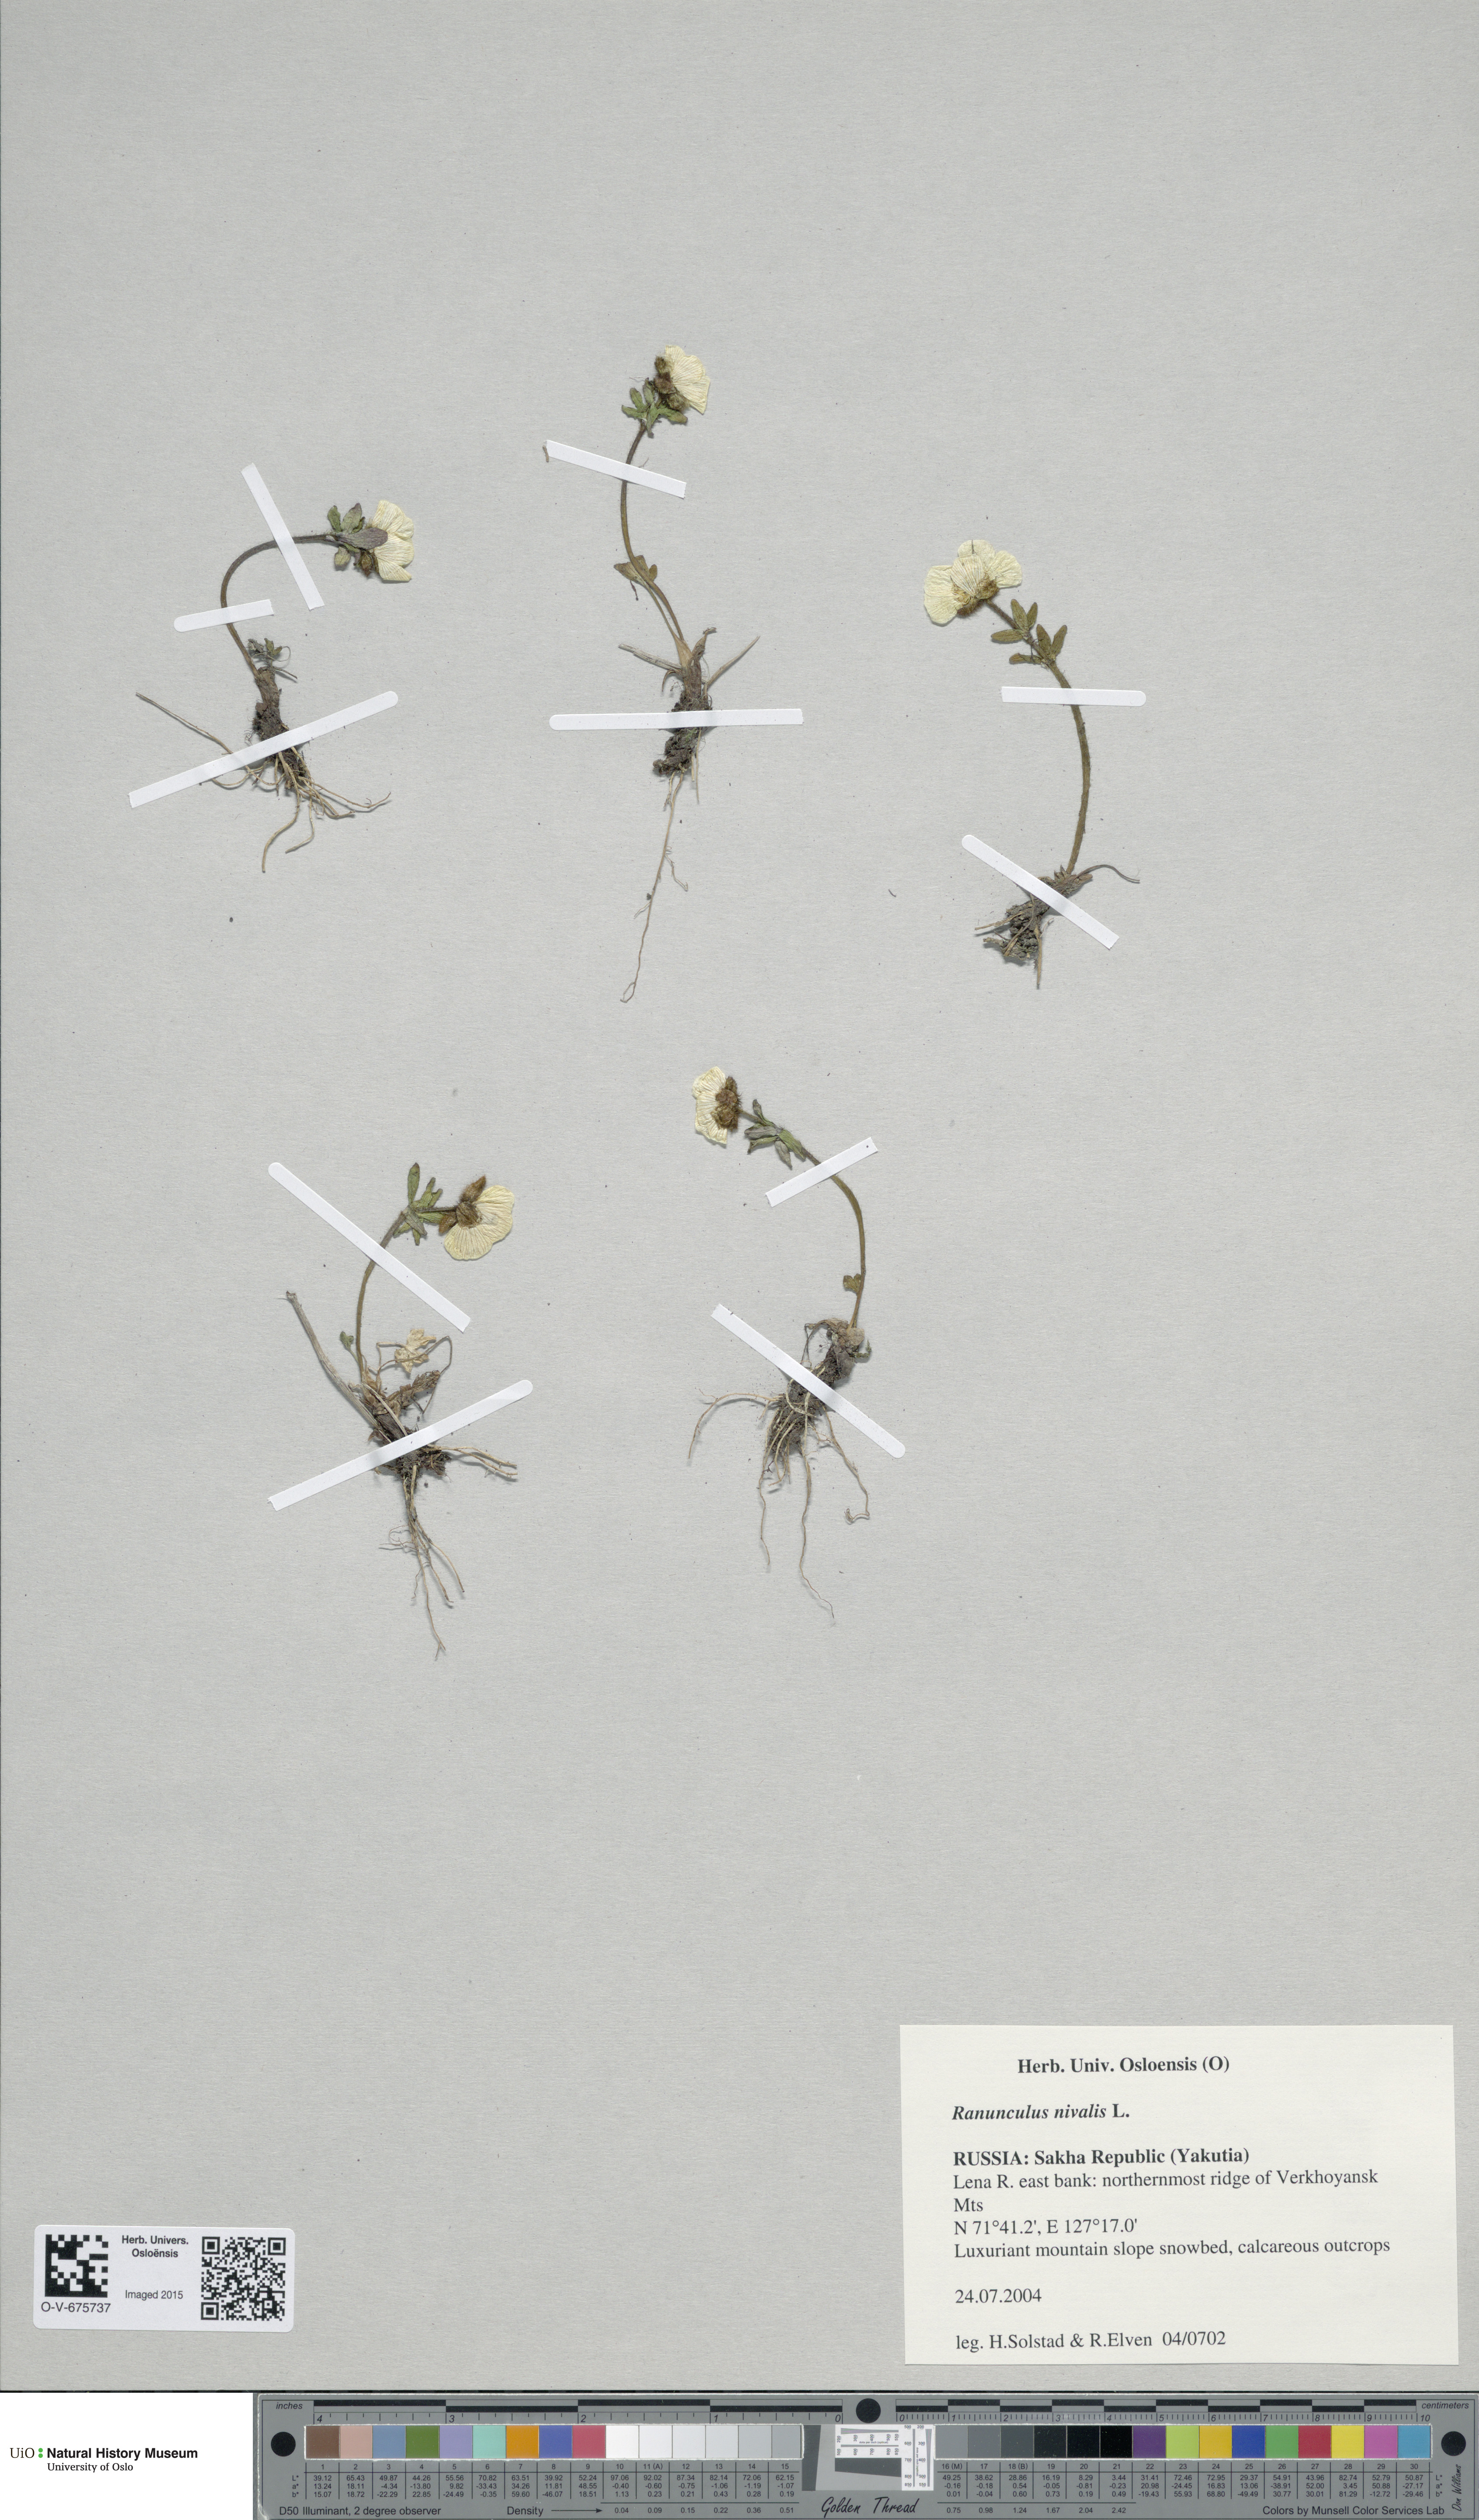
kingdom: Plantae
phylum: Tracheophyta
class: Magnoliopsida
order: Ranunculales
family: Ranunculaceae
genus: Ranunculus
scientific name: Ranunculus nivalis
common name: Snow buttercup
